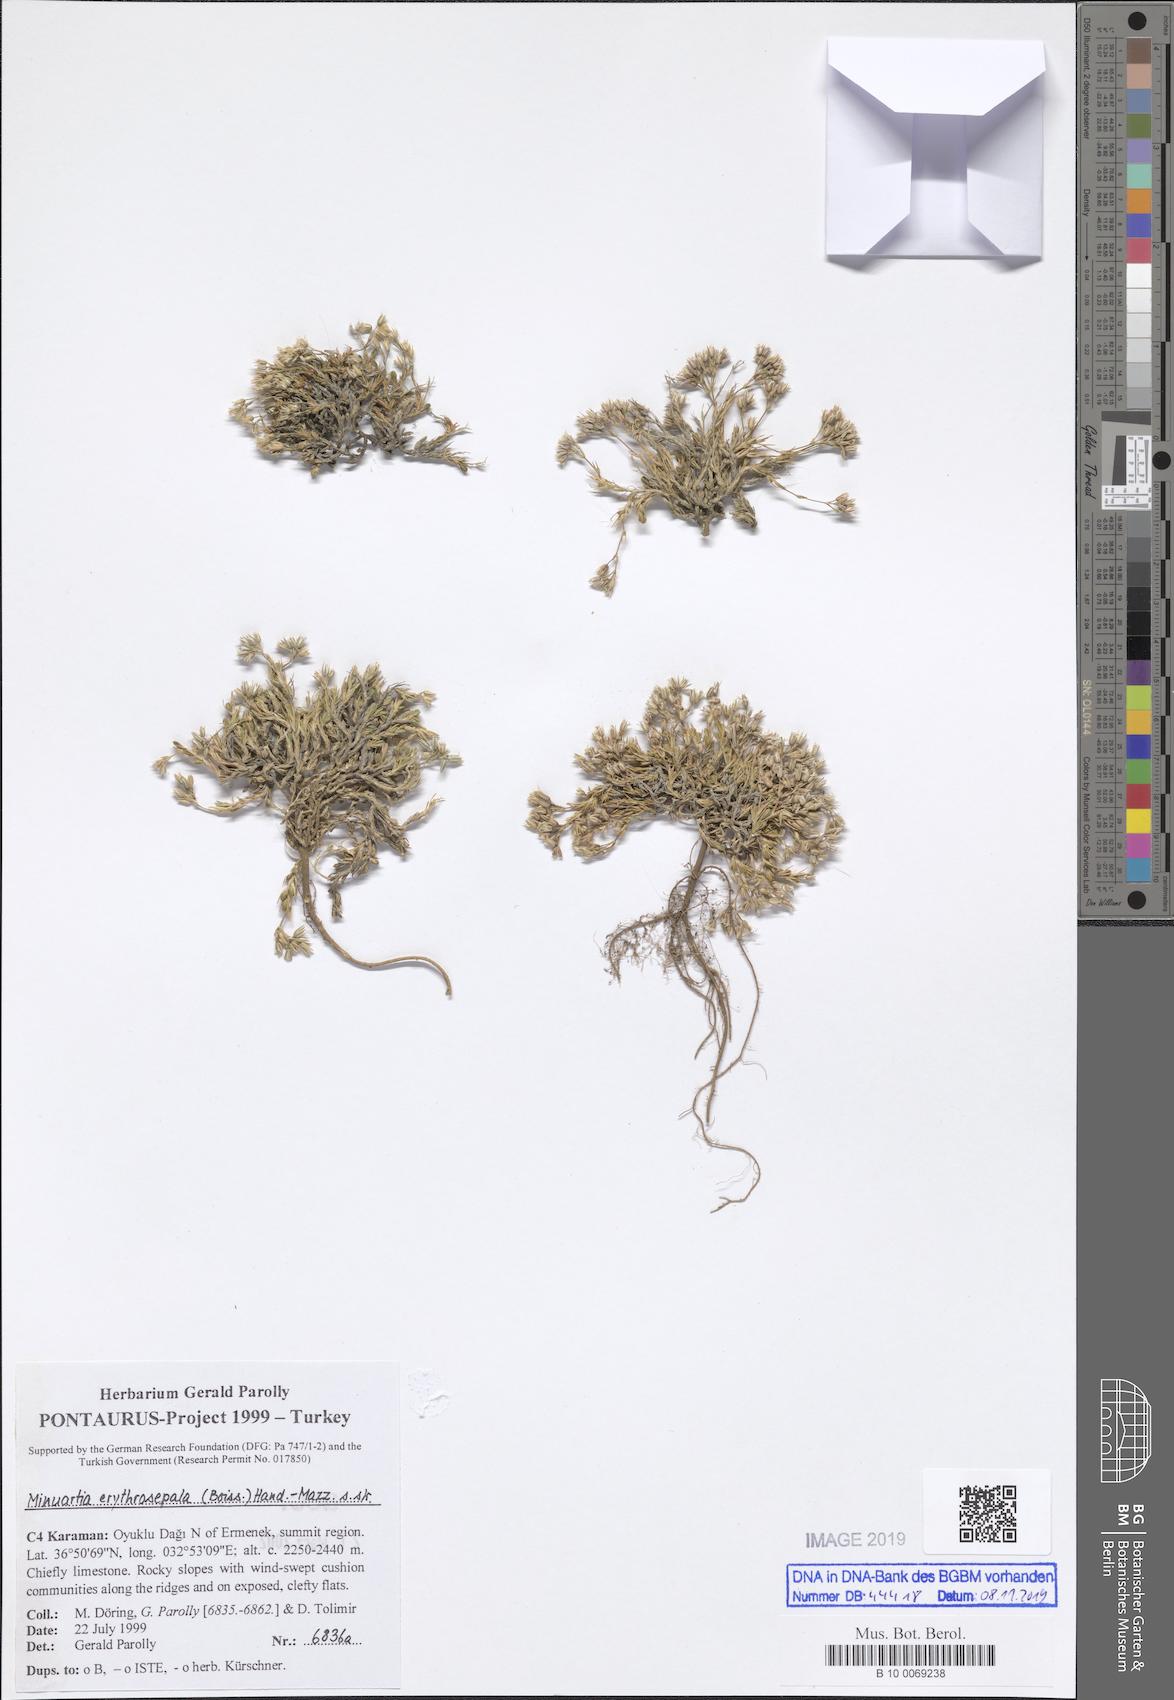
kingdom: Plantae
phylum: Tracheophyta
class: Magnoliopsida
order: Caryophyllales
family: Caryophyllaceae
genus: Minuartia
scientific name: Minuartia erythrosepala
